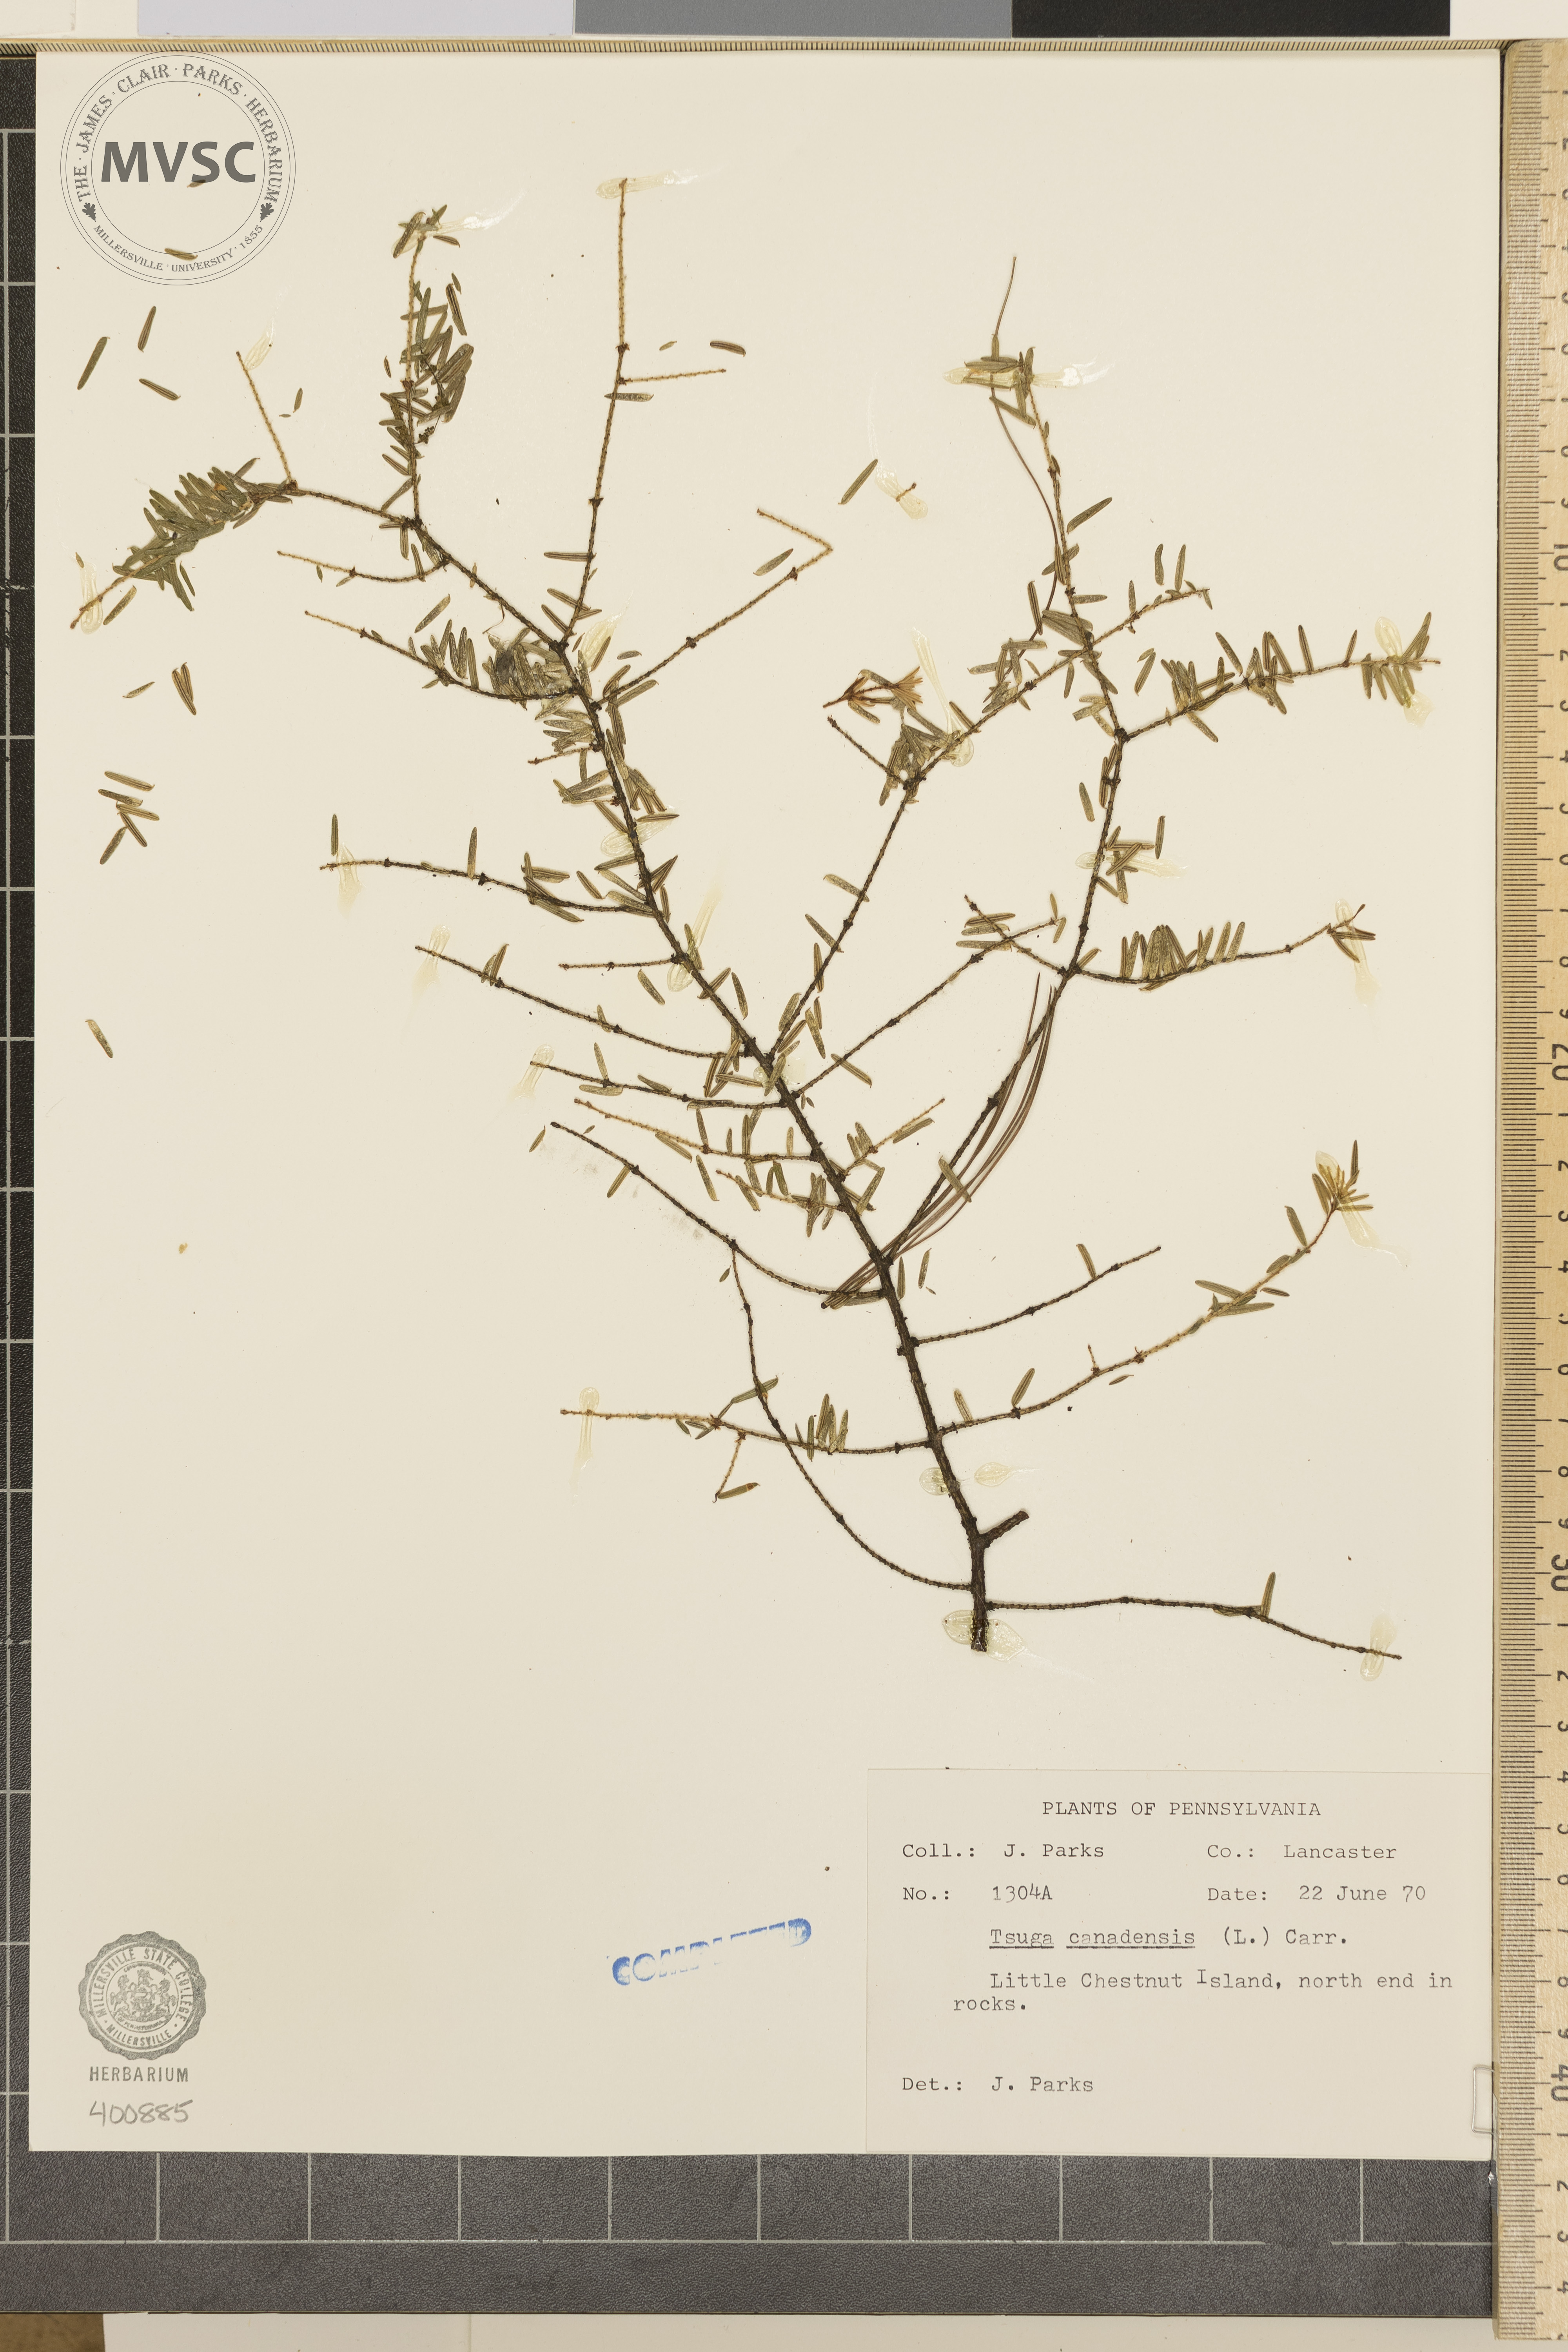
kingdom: Plantae
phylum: Tracheophyta
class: Pinopsida
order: Pinales
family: Pinaceae
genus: Tsuga
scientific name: Tsuga canadensis
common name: Eastern hemlock
